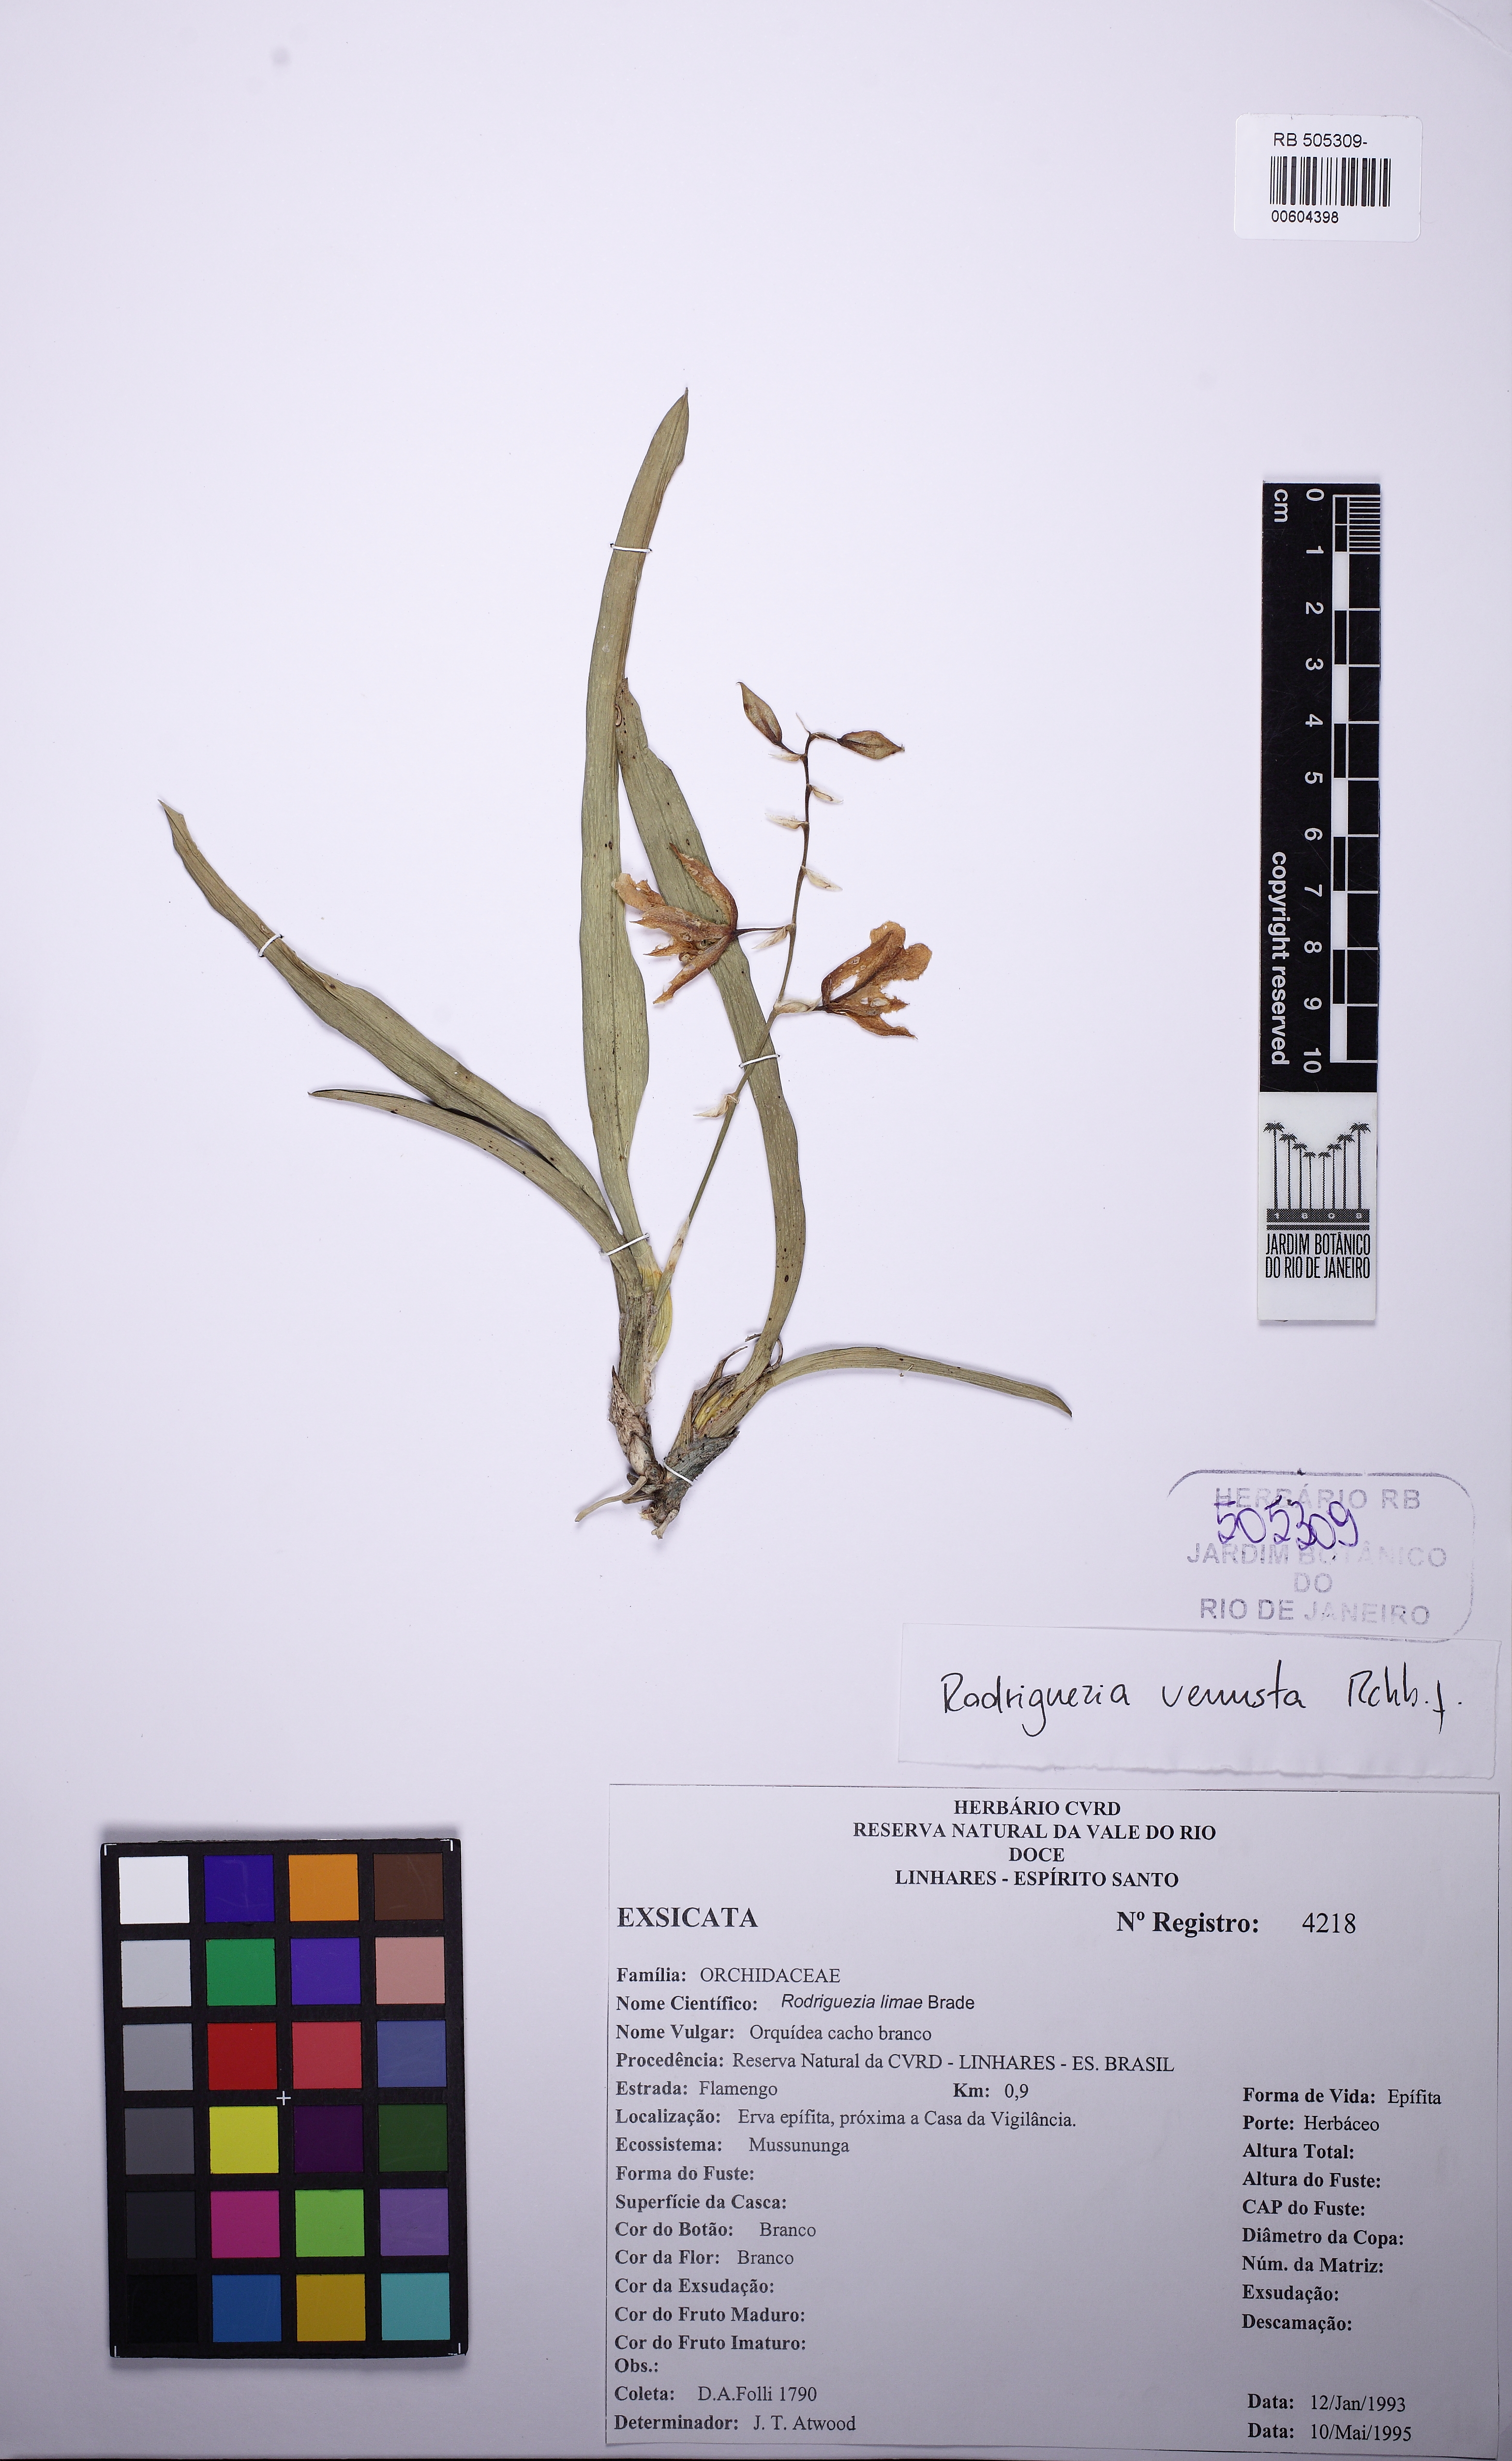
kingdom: Plantae
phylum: Tracheophyta
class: Liliopsida
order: Asparagales
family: Orchidaceae
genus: Rodriguezia
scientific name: Rodriguezia bracteata
